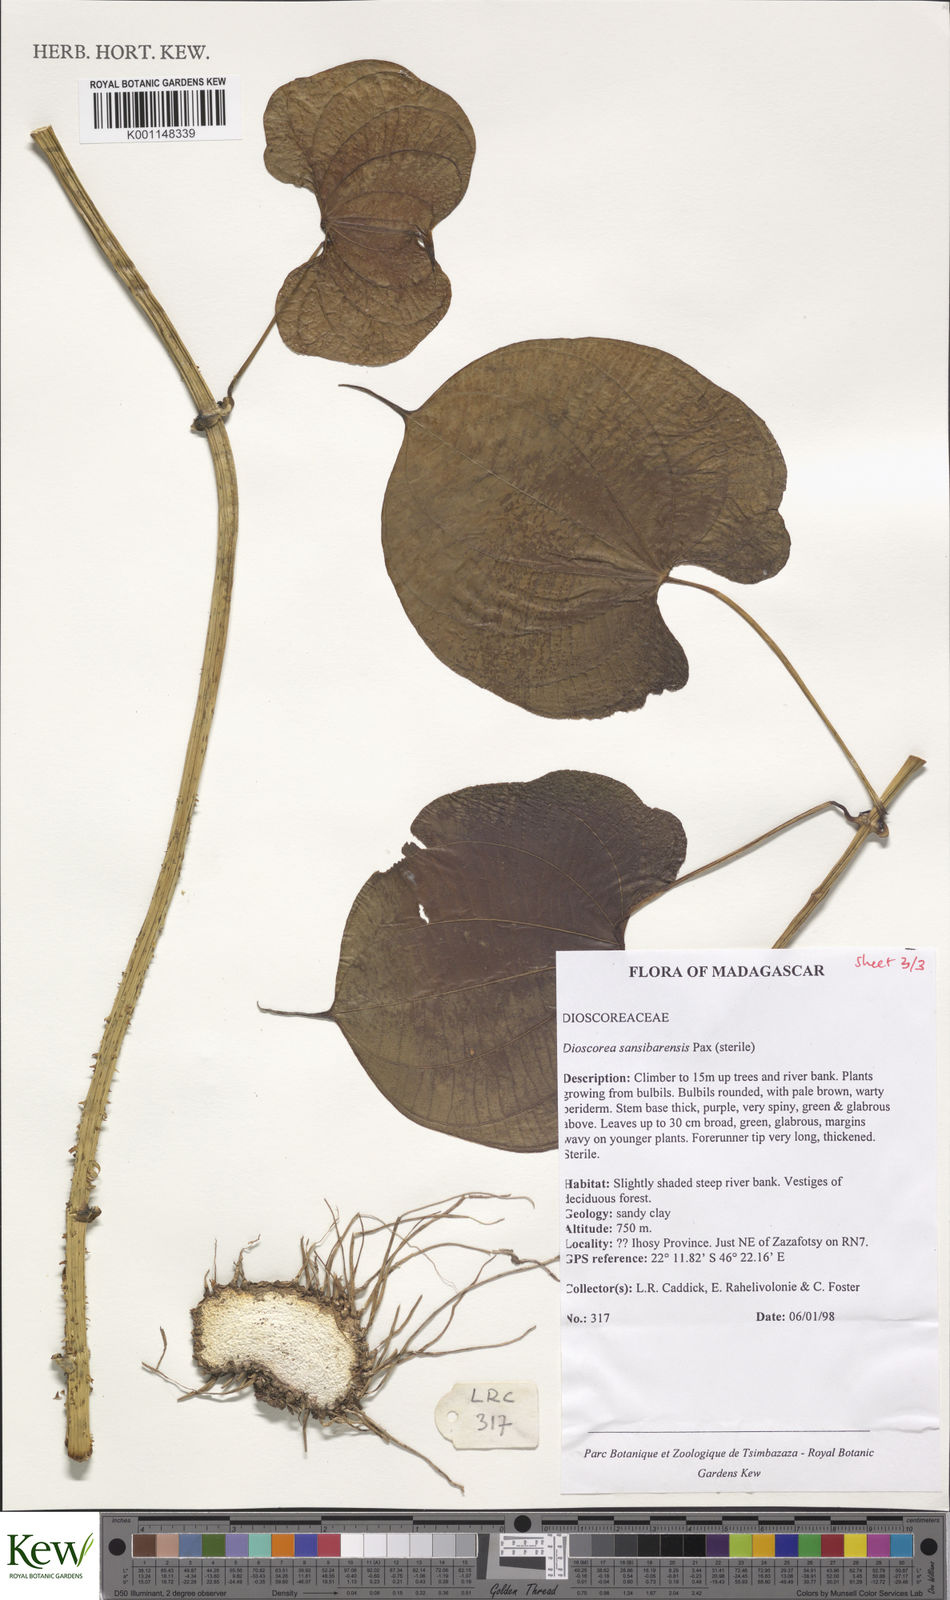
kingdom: Plantae
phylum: Tracheophyta
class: Liliopsida
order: Dioscoreales
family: Dioscoreaceae
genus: Dioscorea
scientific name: Dioscorea sansibarensis
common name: Zanzibar yam
